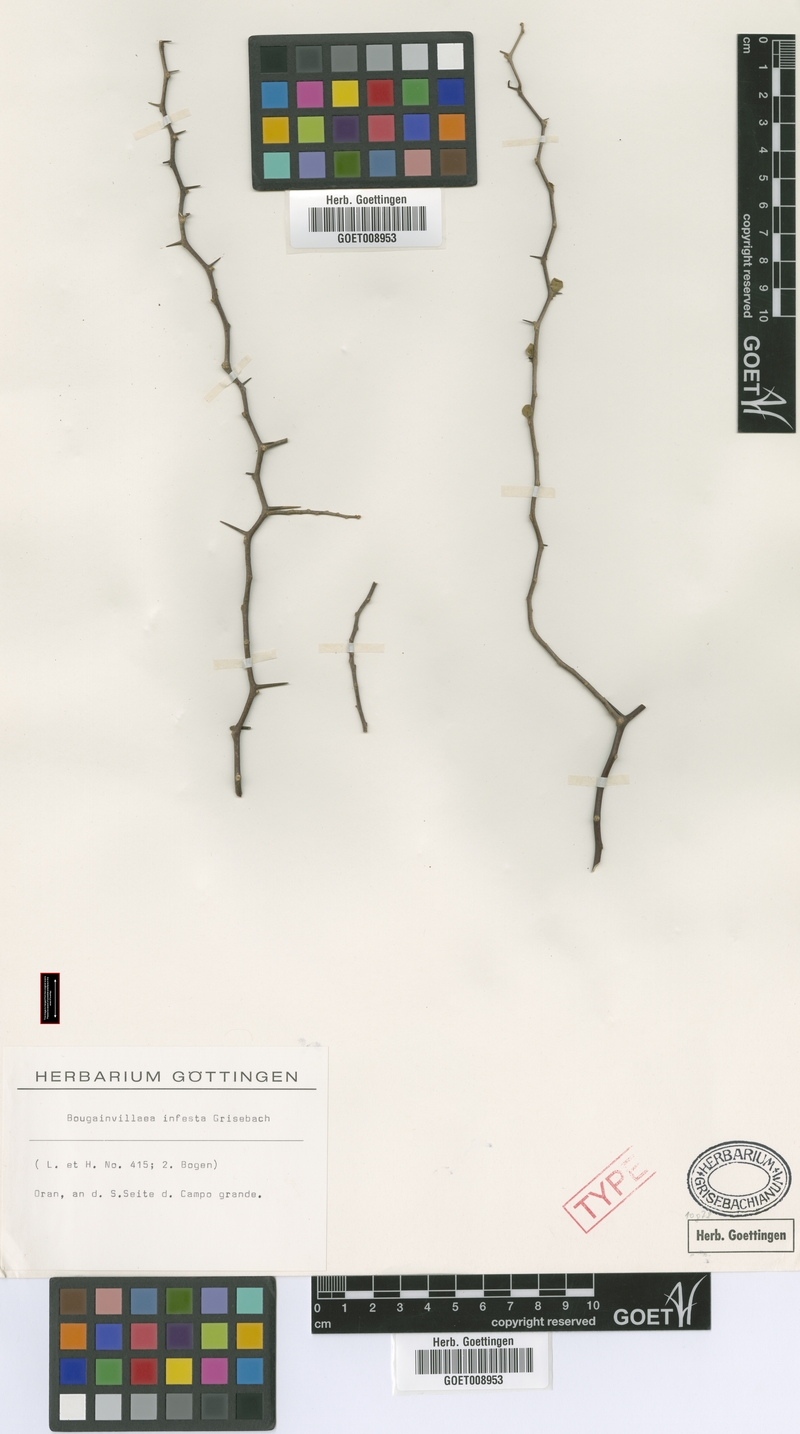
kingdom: Plantae
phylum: Tracheophyta
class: Magnoliopsida
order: Caryophyllales
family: Nyctaginaceae
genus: Bougainvillea
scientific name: Bougainvillea infesta
